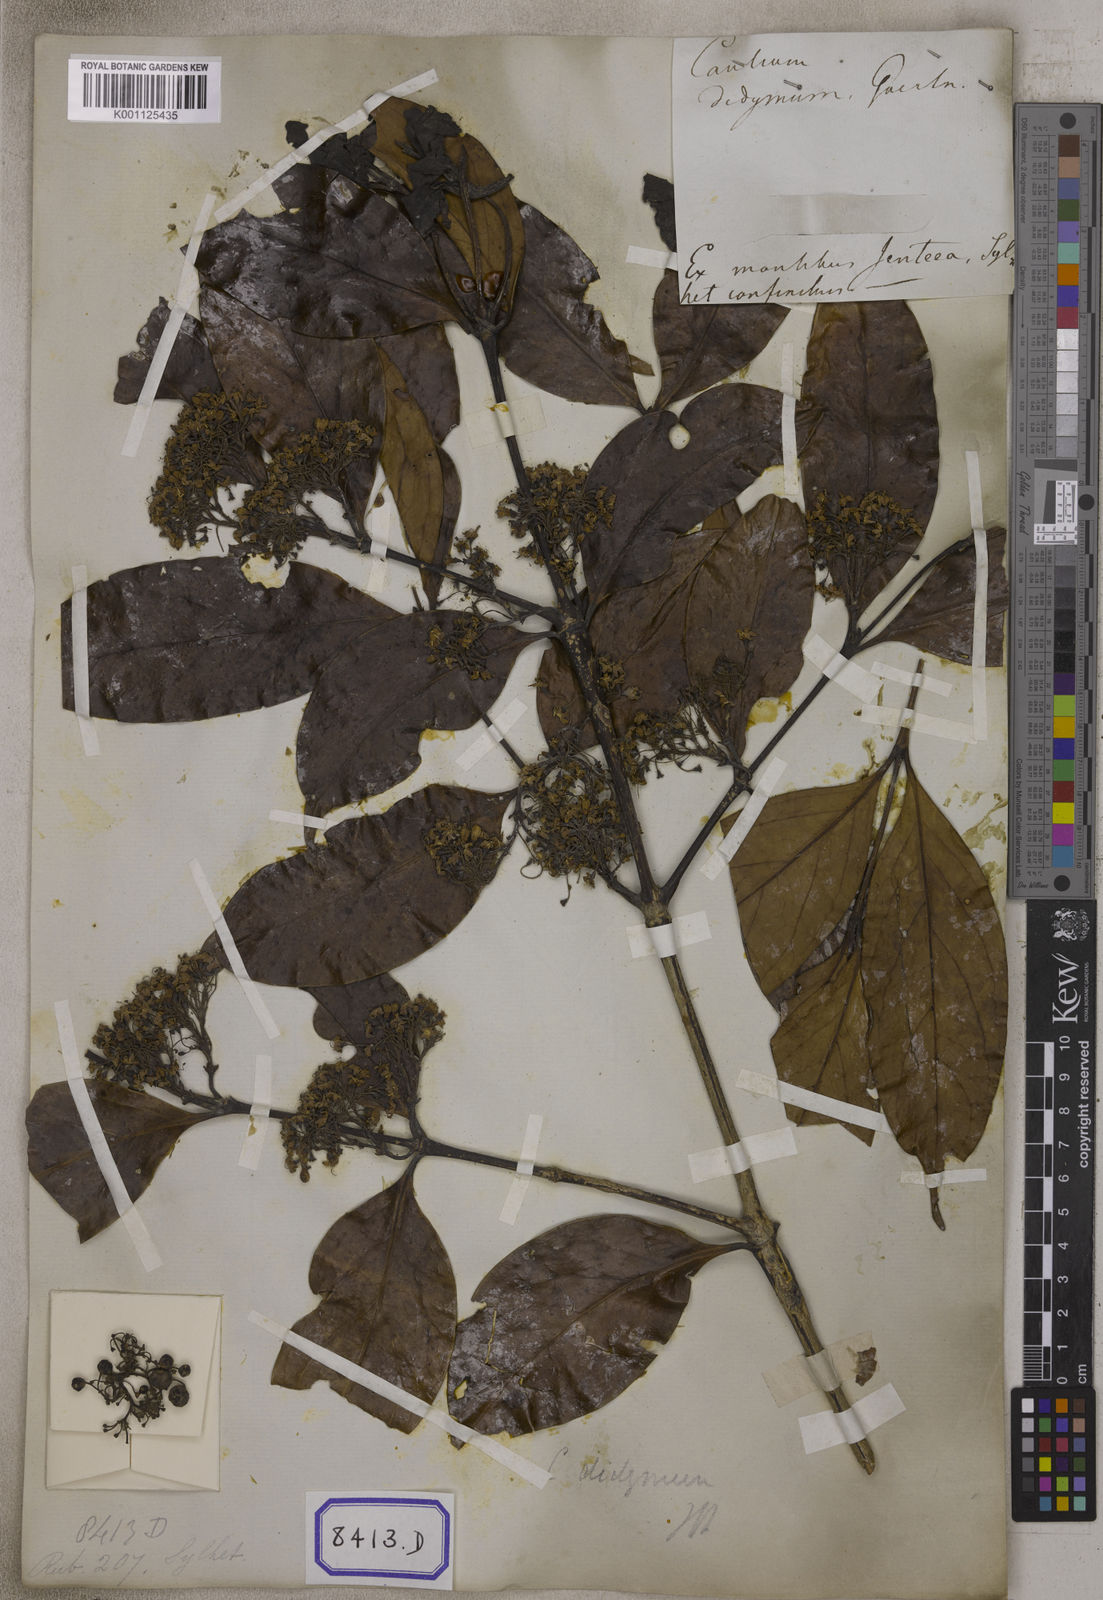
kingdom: Plantae
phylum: Tracheophyta
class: Magnoliopsida
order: Gentianales
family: Rubiaceae
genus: Psydrax
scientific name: Psydrax dicoccos
